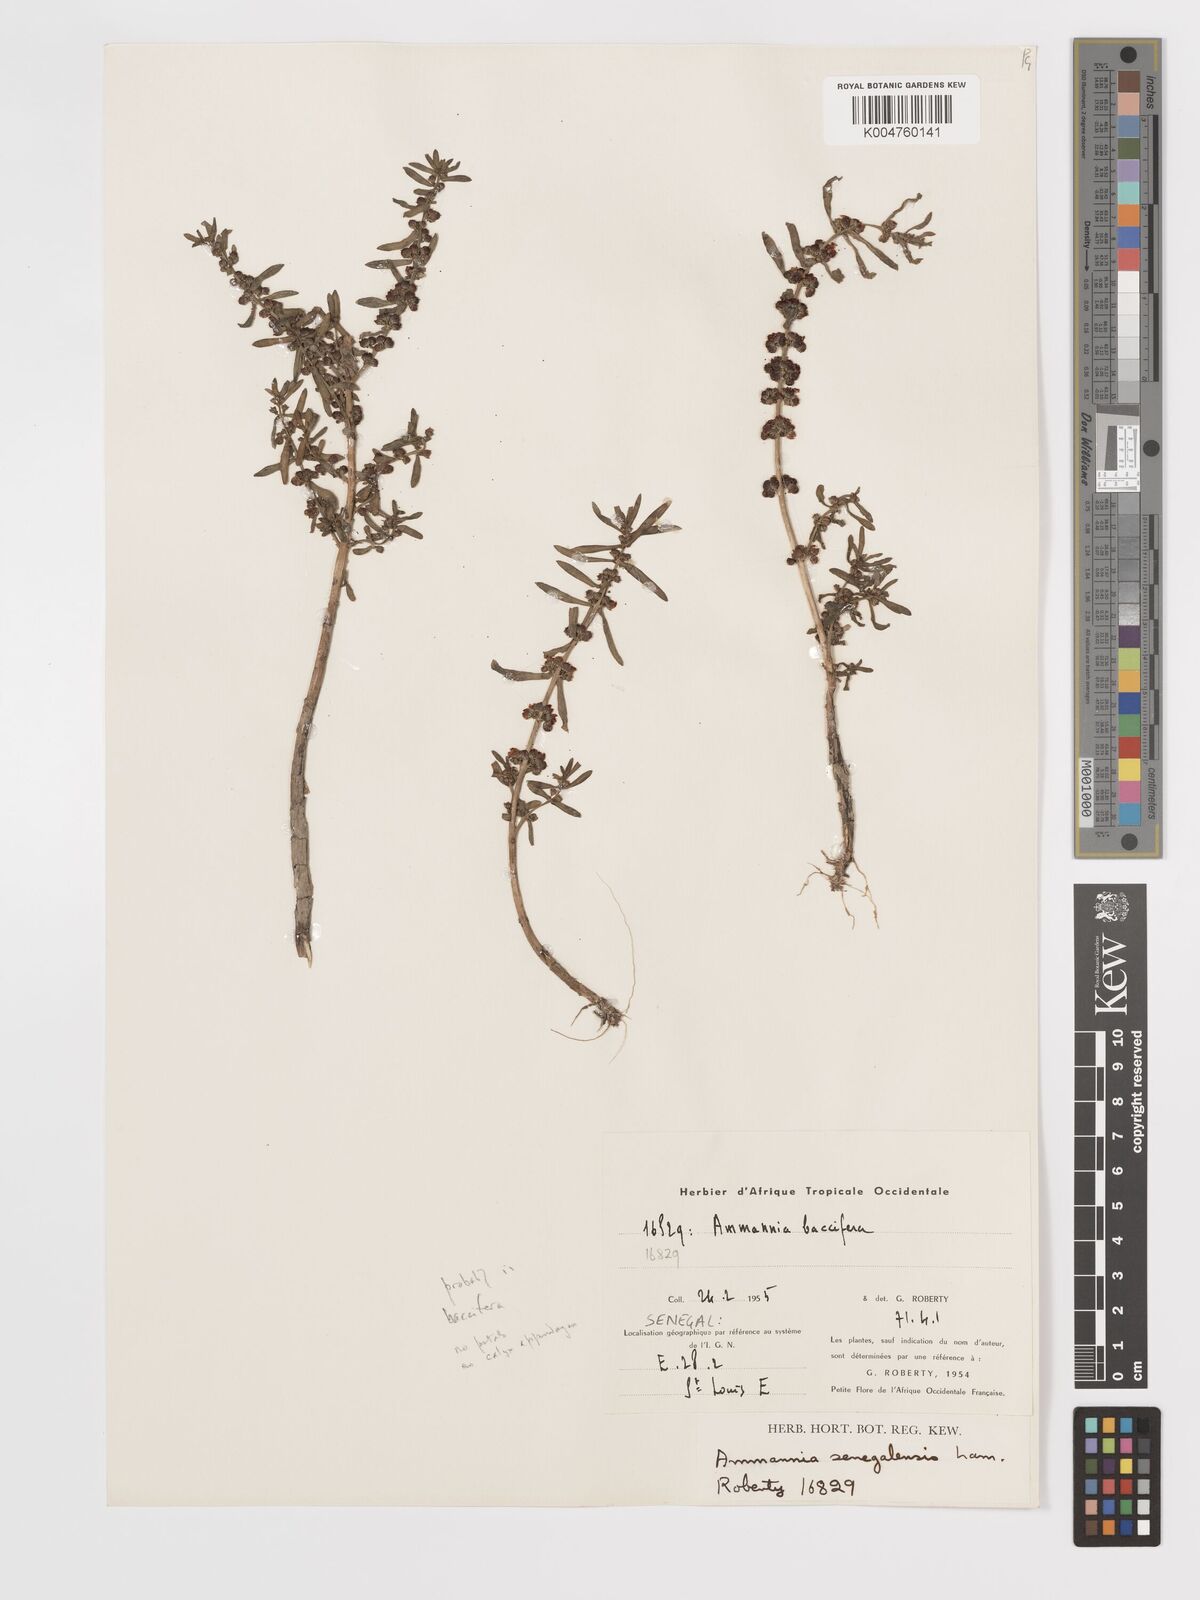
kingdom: Plantae
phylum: Tracheophyta
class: Magnoliopsida
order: Myrtales
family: Lythraceae
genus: Ammannia
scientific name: Ammannia senegalensis
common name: Red ammannia
